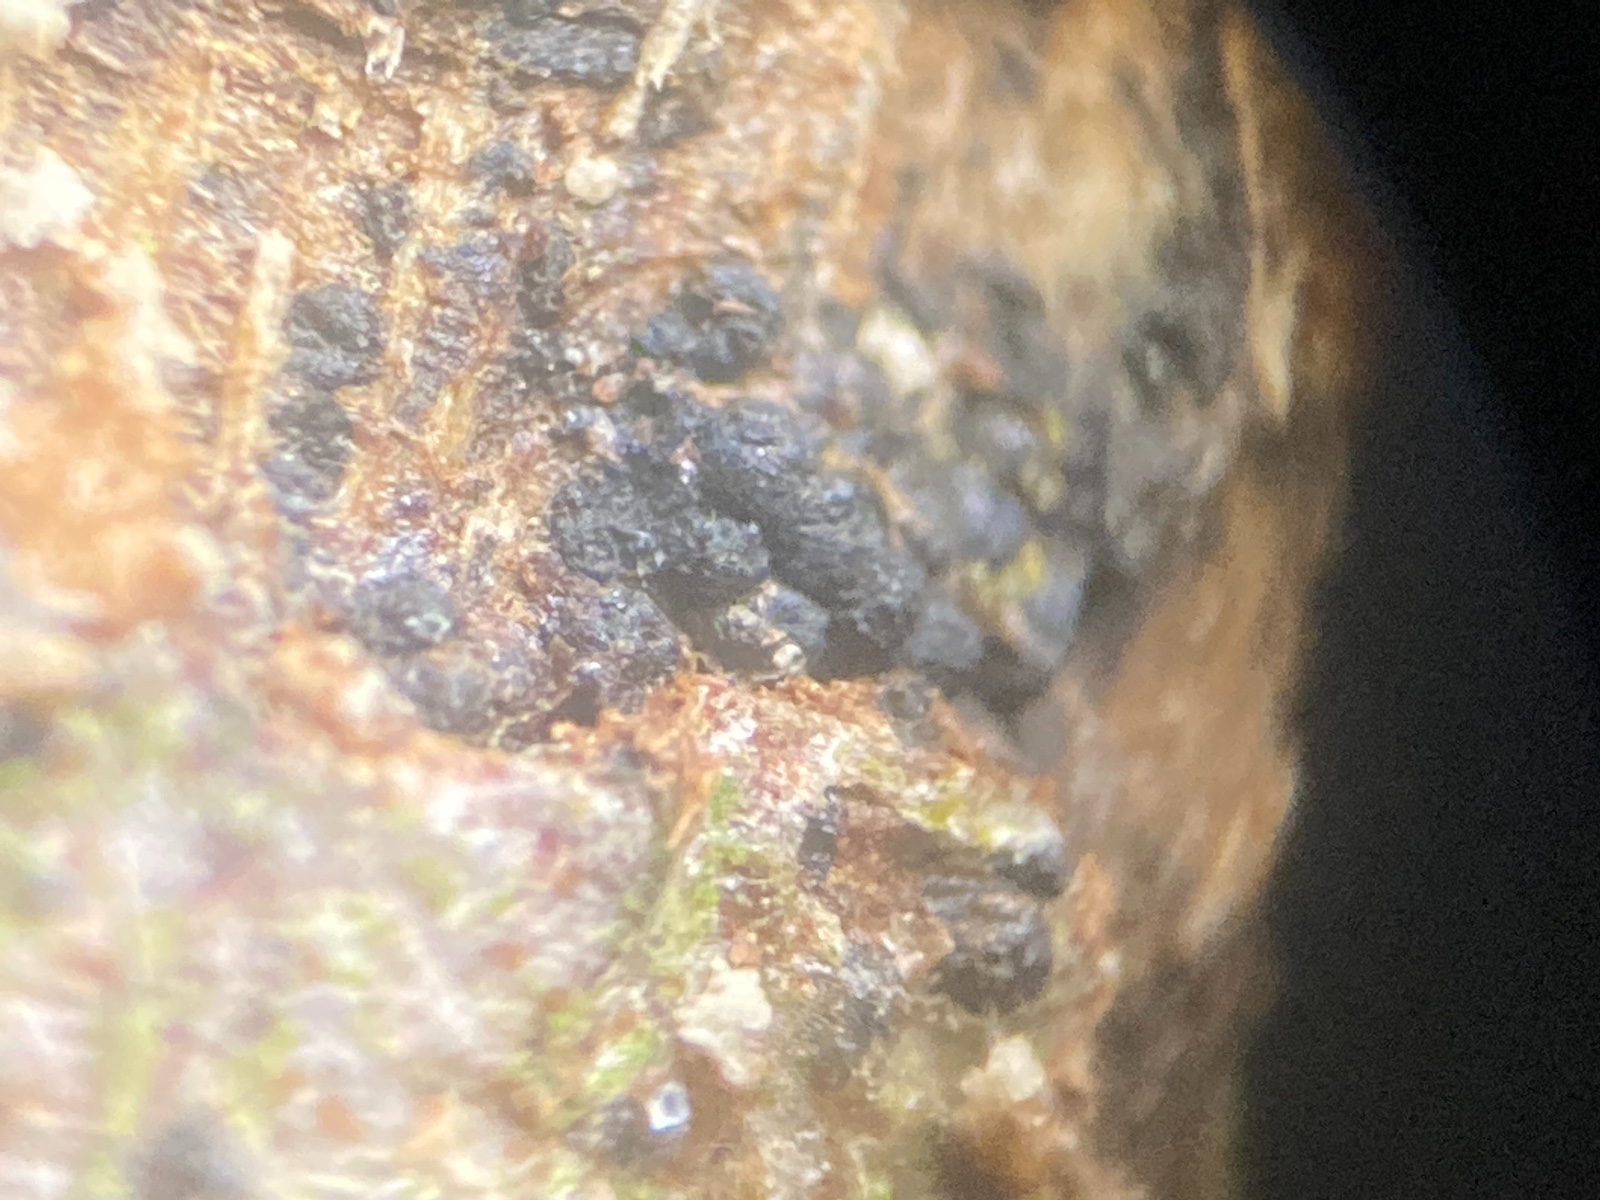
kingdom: Fungi
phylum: Ascomycota
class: Dothideomycetes
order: Pleosporales
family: Melanommataceae
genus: Melanomma
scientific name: Melanomma pulvis-pyrius
